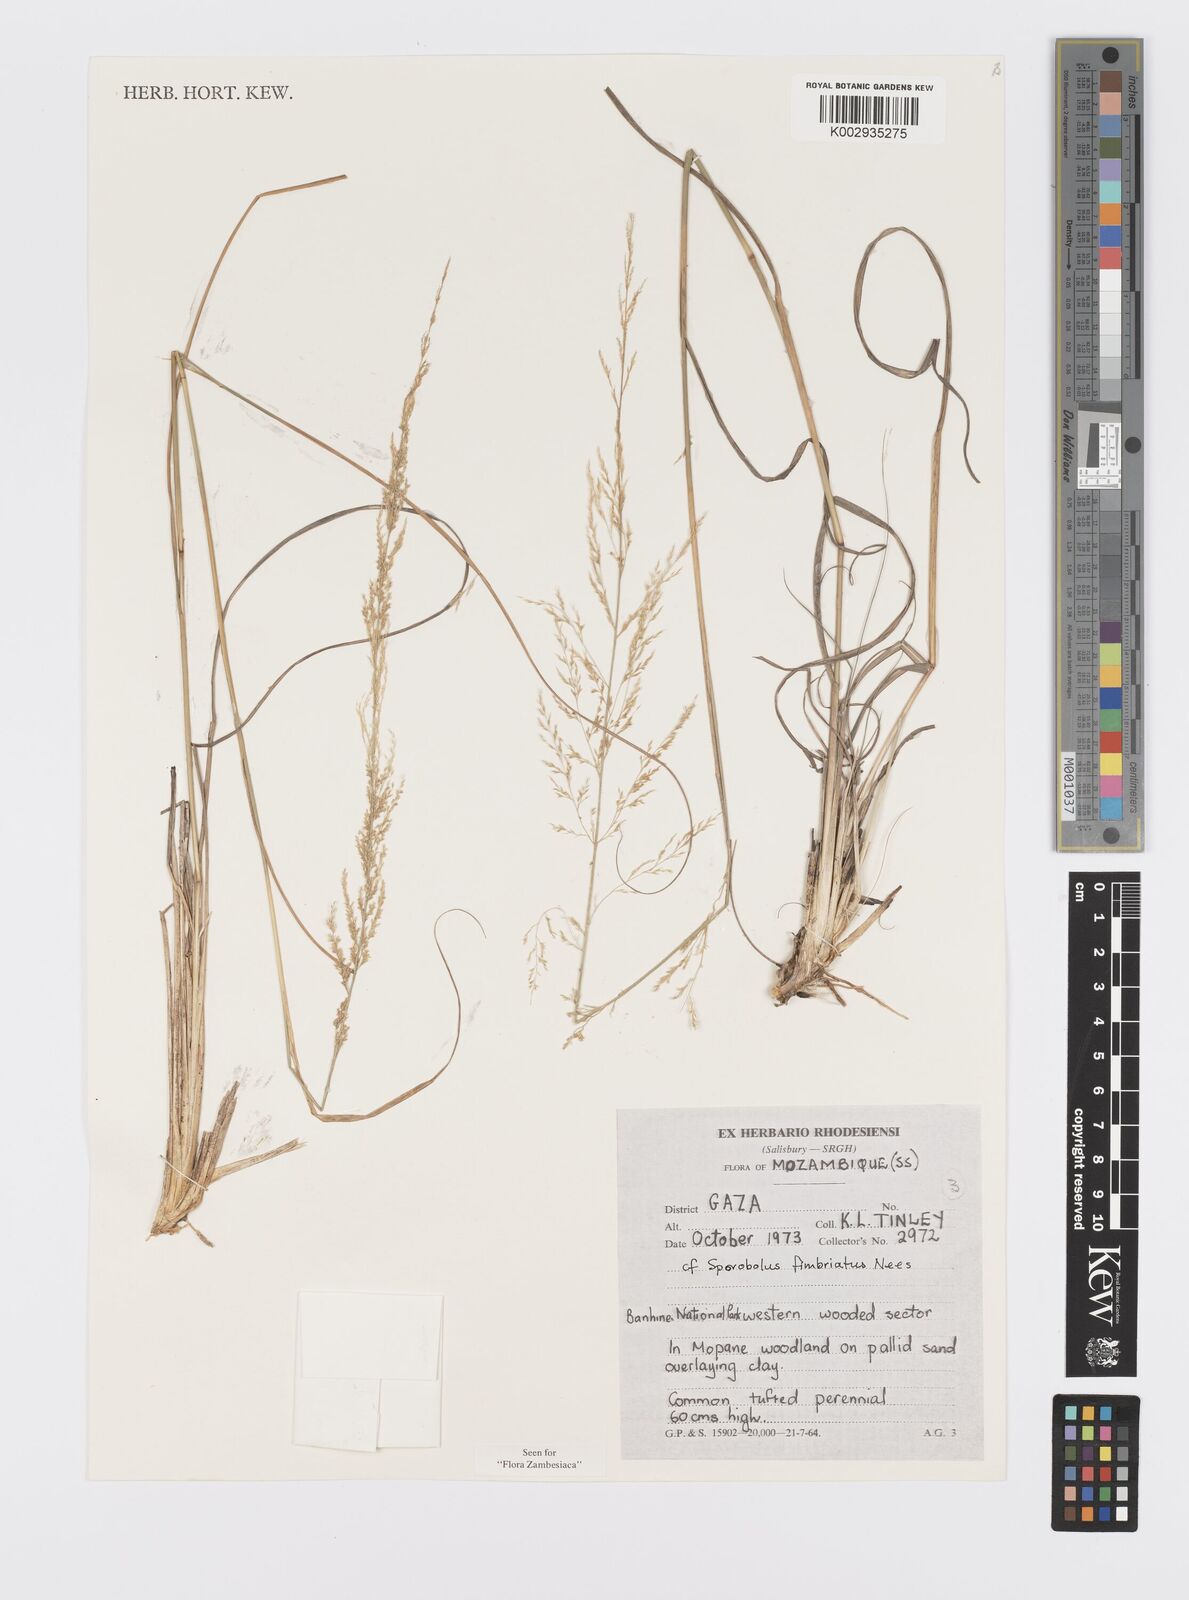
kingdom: Plantae
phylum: Tracheophyta
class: Liliopsida
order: Poales
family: Poaceae
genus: Sporobolus
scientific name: Sporobolus fimbriatus
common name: Fringed dropseed
